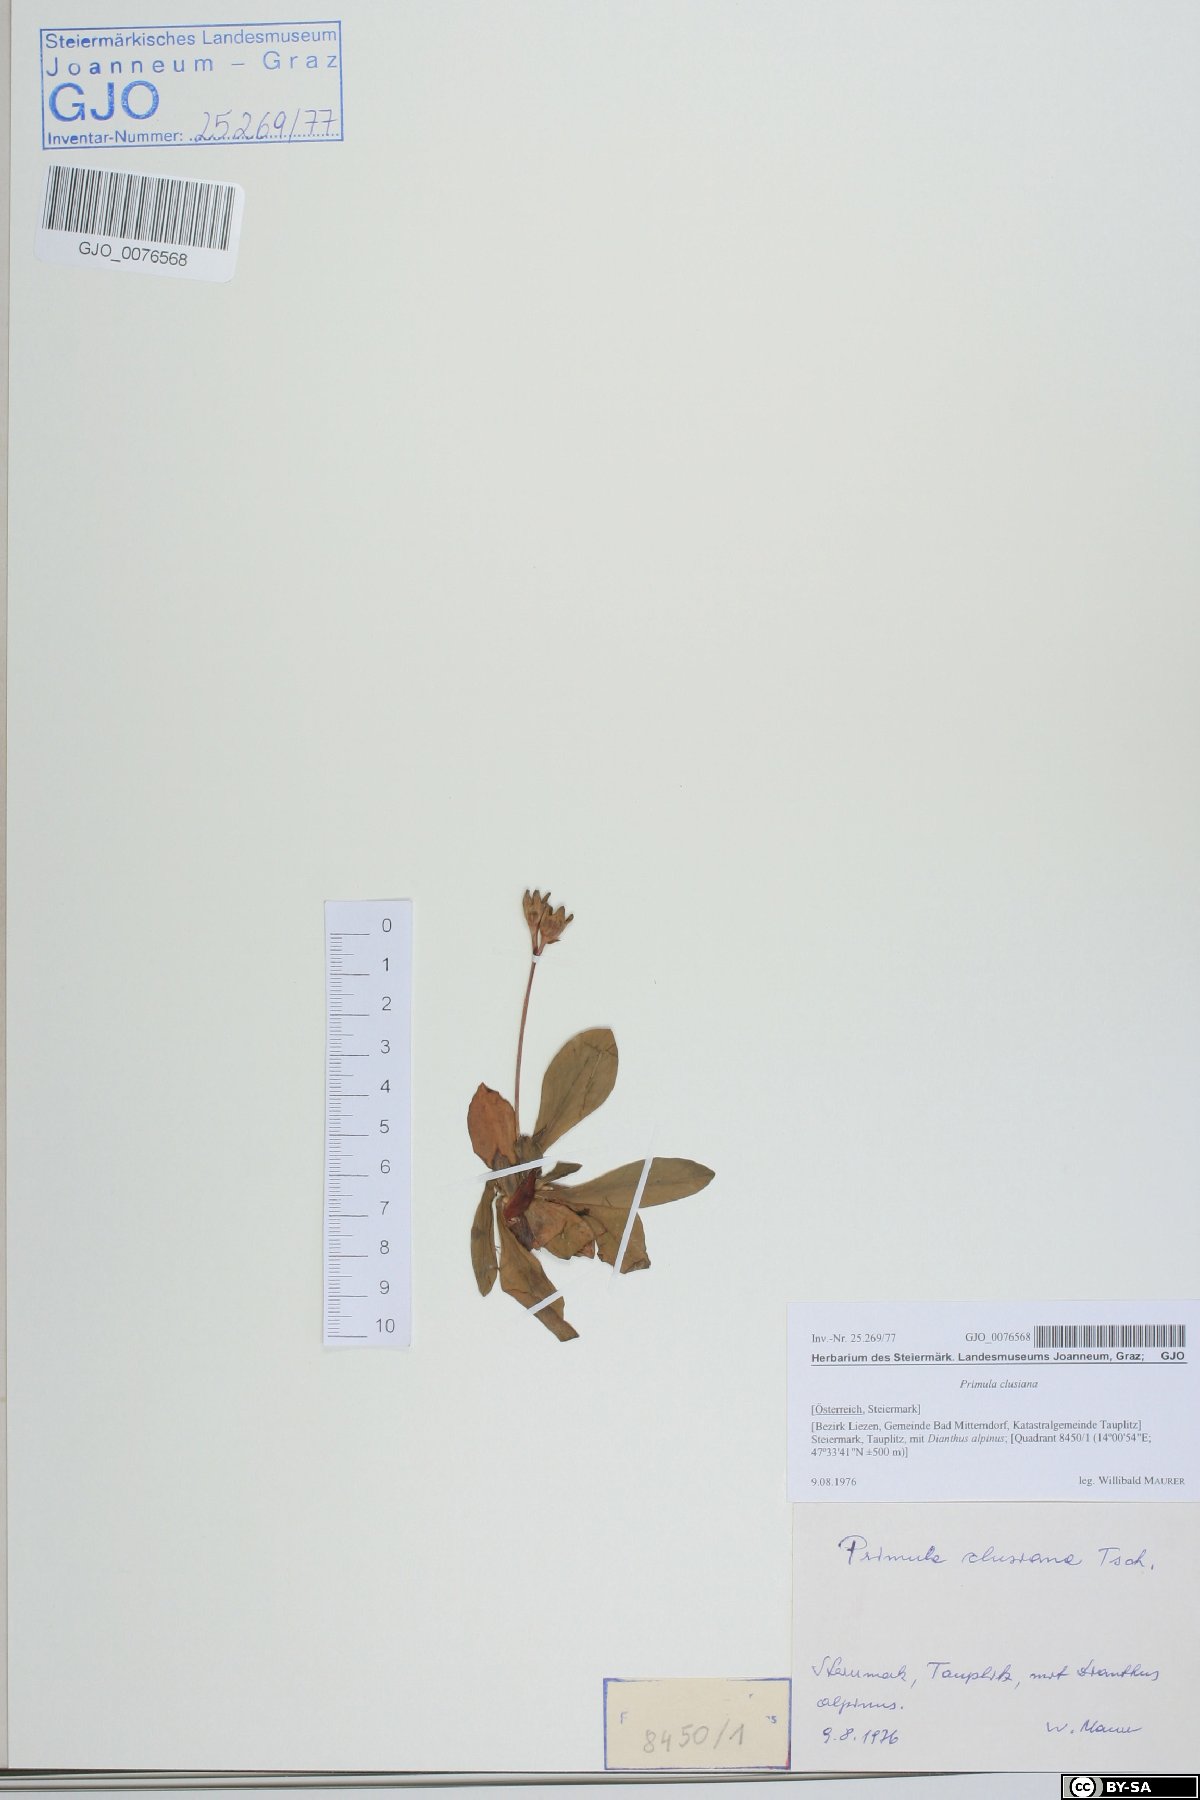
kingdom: Plantae
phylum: Tracheophyta
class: Magnoliopsida
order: Ericales
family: Primulaceae
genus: Primula
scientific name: Primula clusiana
